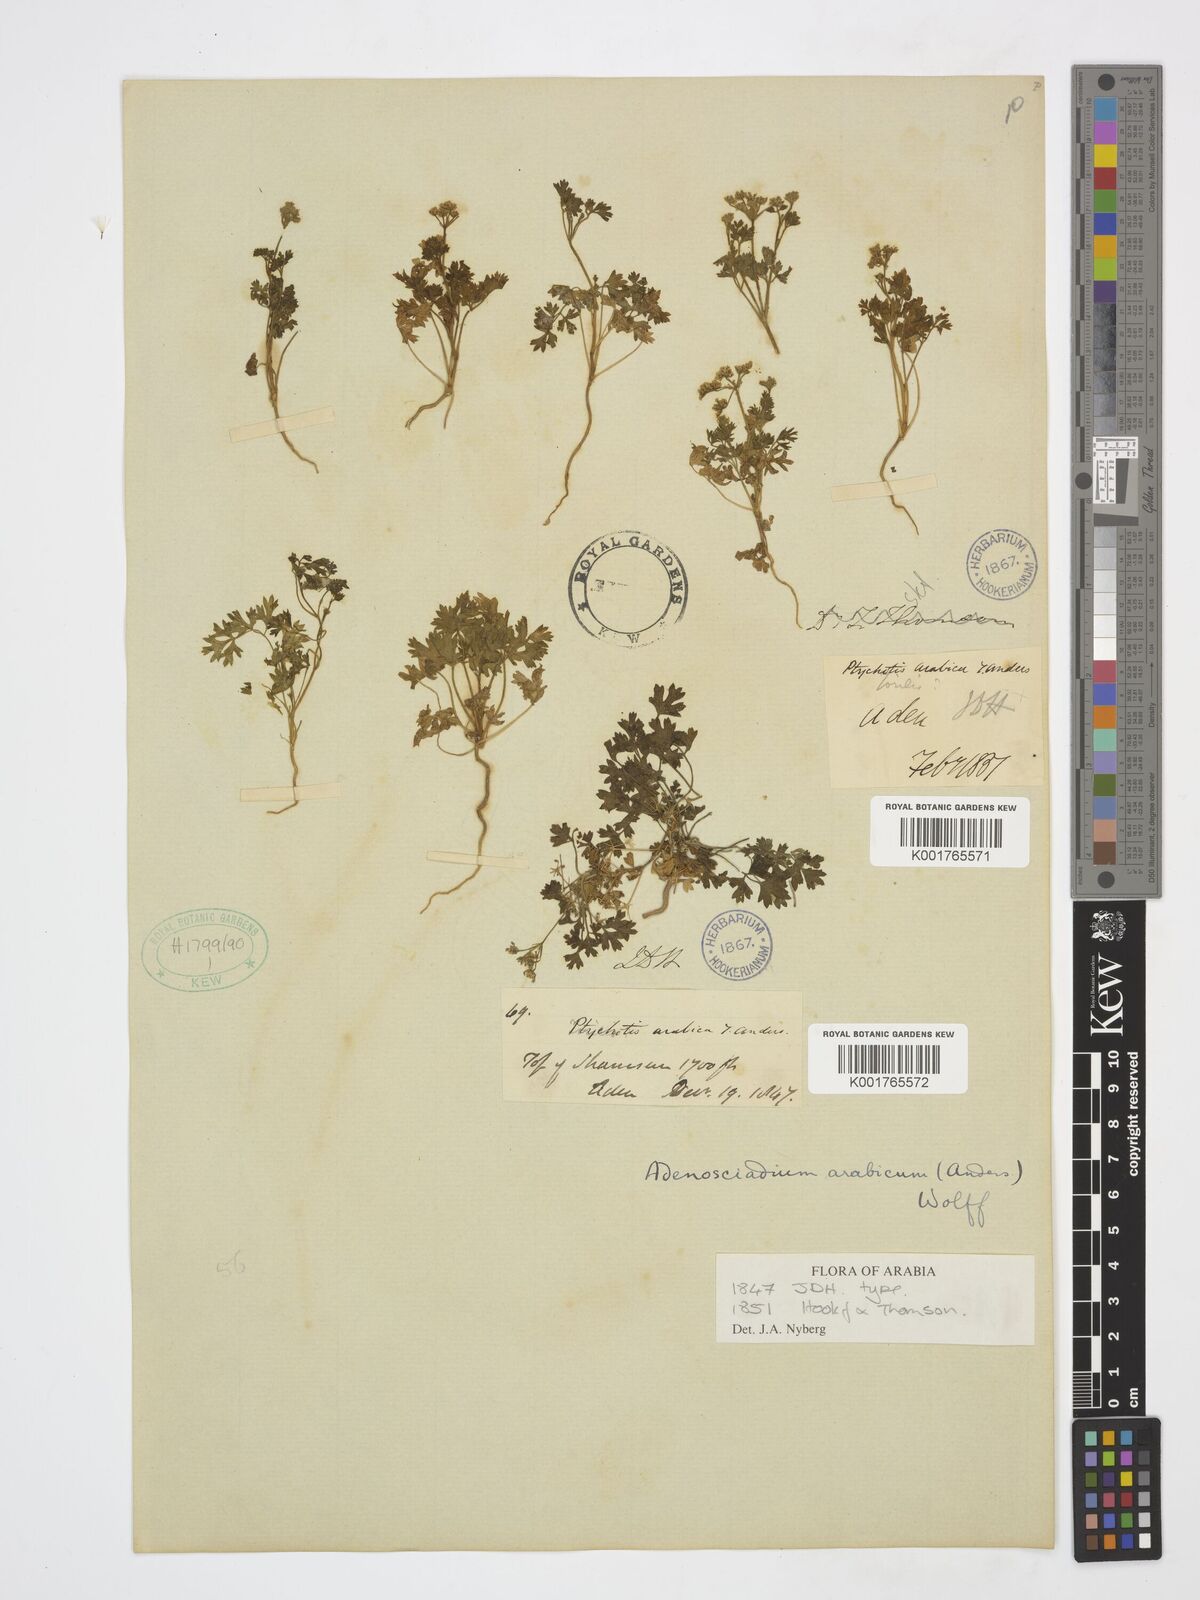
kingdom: Plantae
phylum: Tracheophyta
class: Magnoliopsida
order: Apiales
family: Apiaceae
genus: Adenosciadium
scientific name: Adenosciadium arabicum
